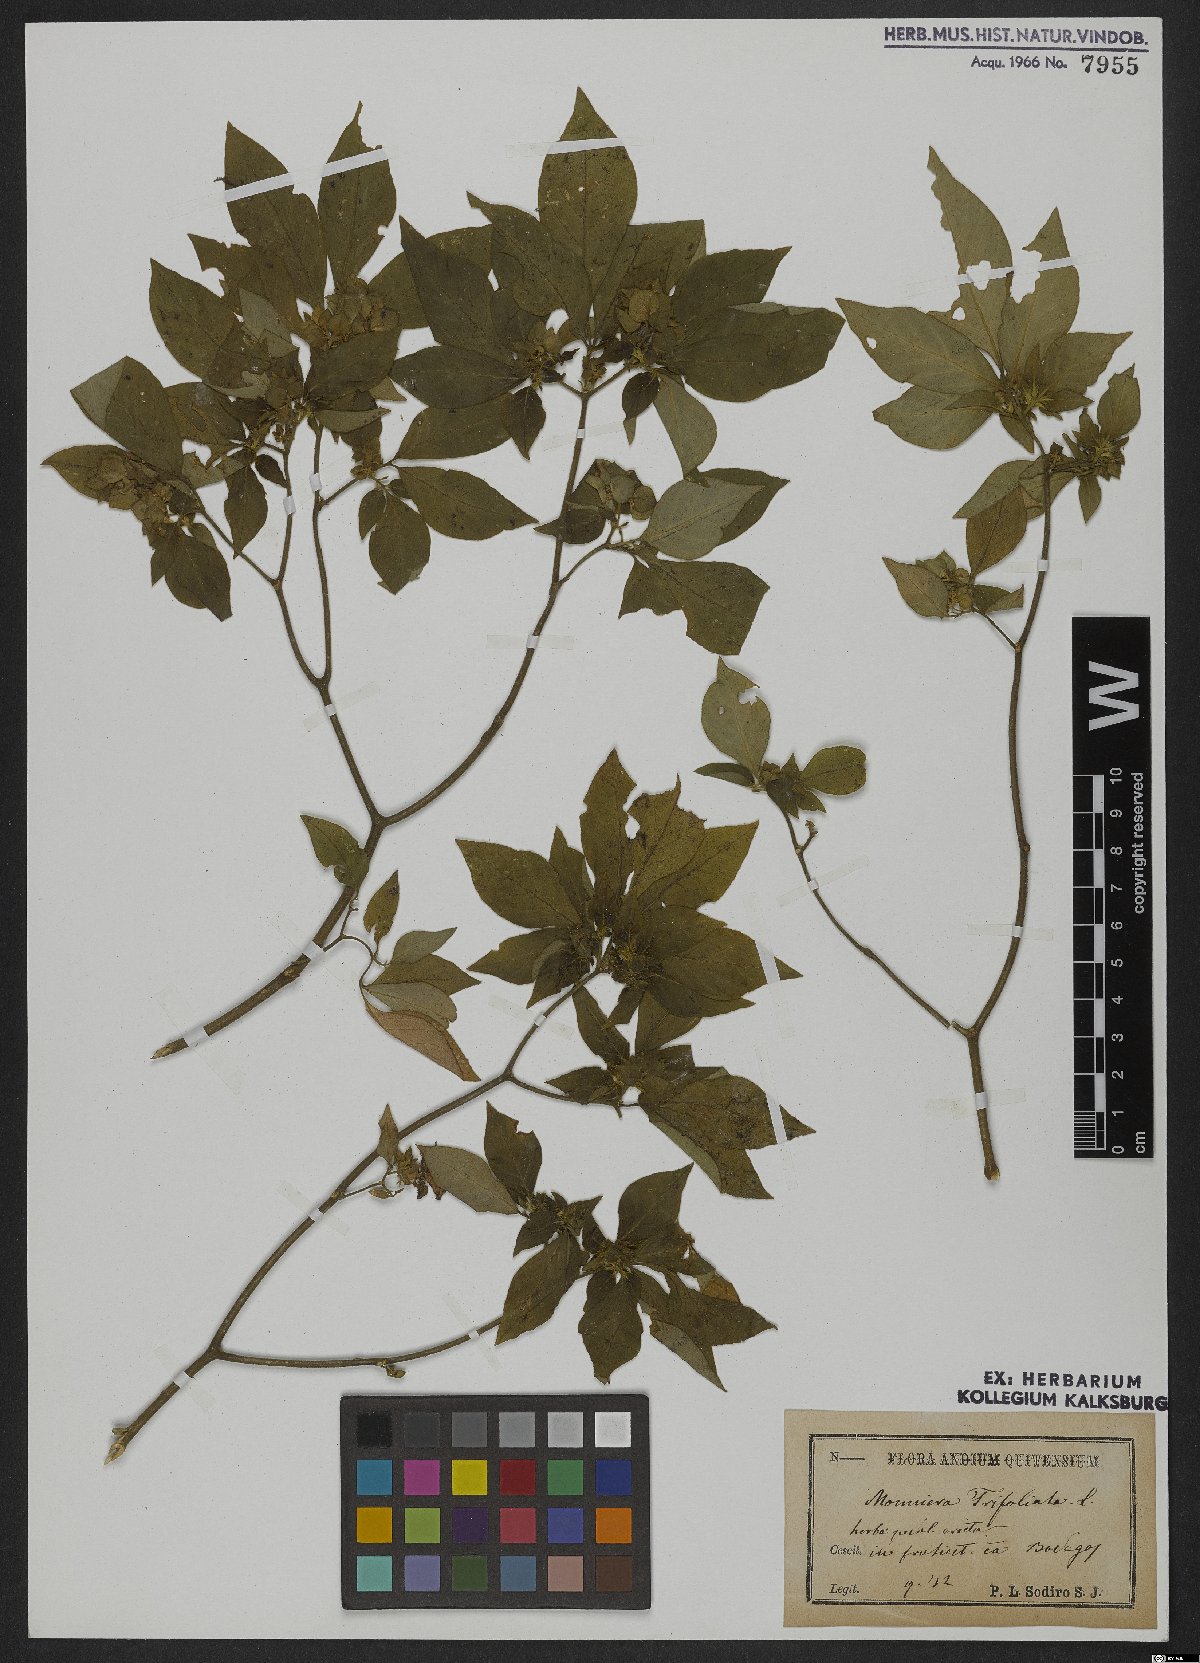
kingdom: Plantae
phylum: Tracheophyta
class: Magnoliopsida
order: Sapindales
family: Rutaceae
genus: Ertela
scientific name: Ertela trifolia
